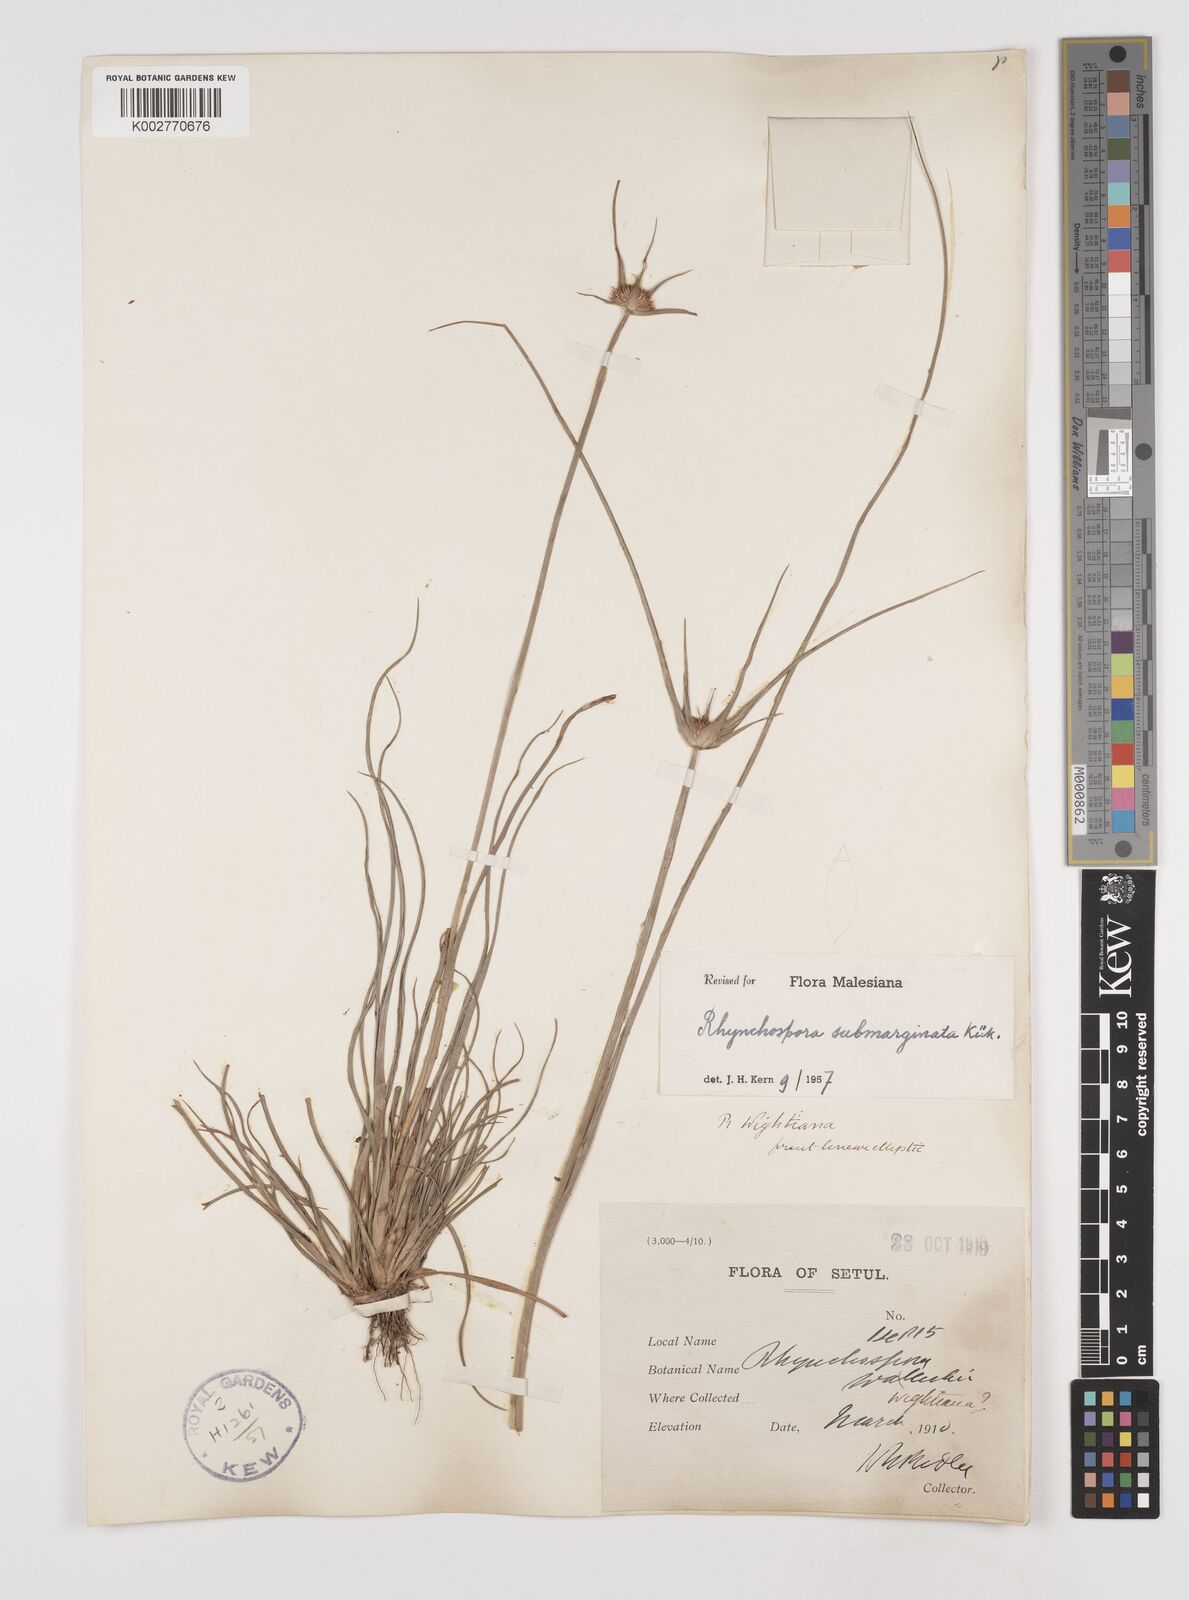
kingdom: Plantae
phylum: Tracheophyta
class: Liliopsida
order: Poales
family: Cyperaceae
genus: Rhynchospora
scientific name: Rhynchospora submarginata
